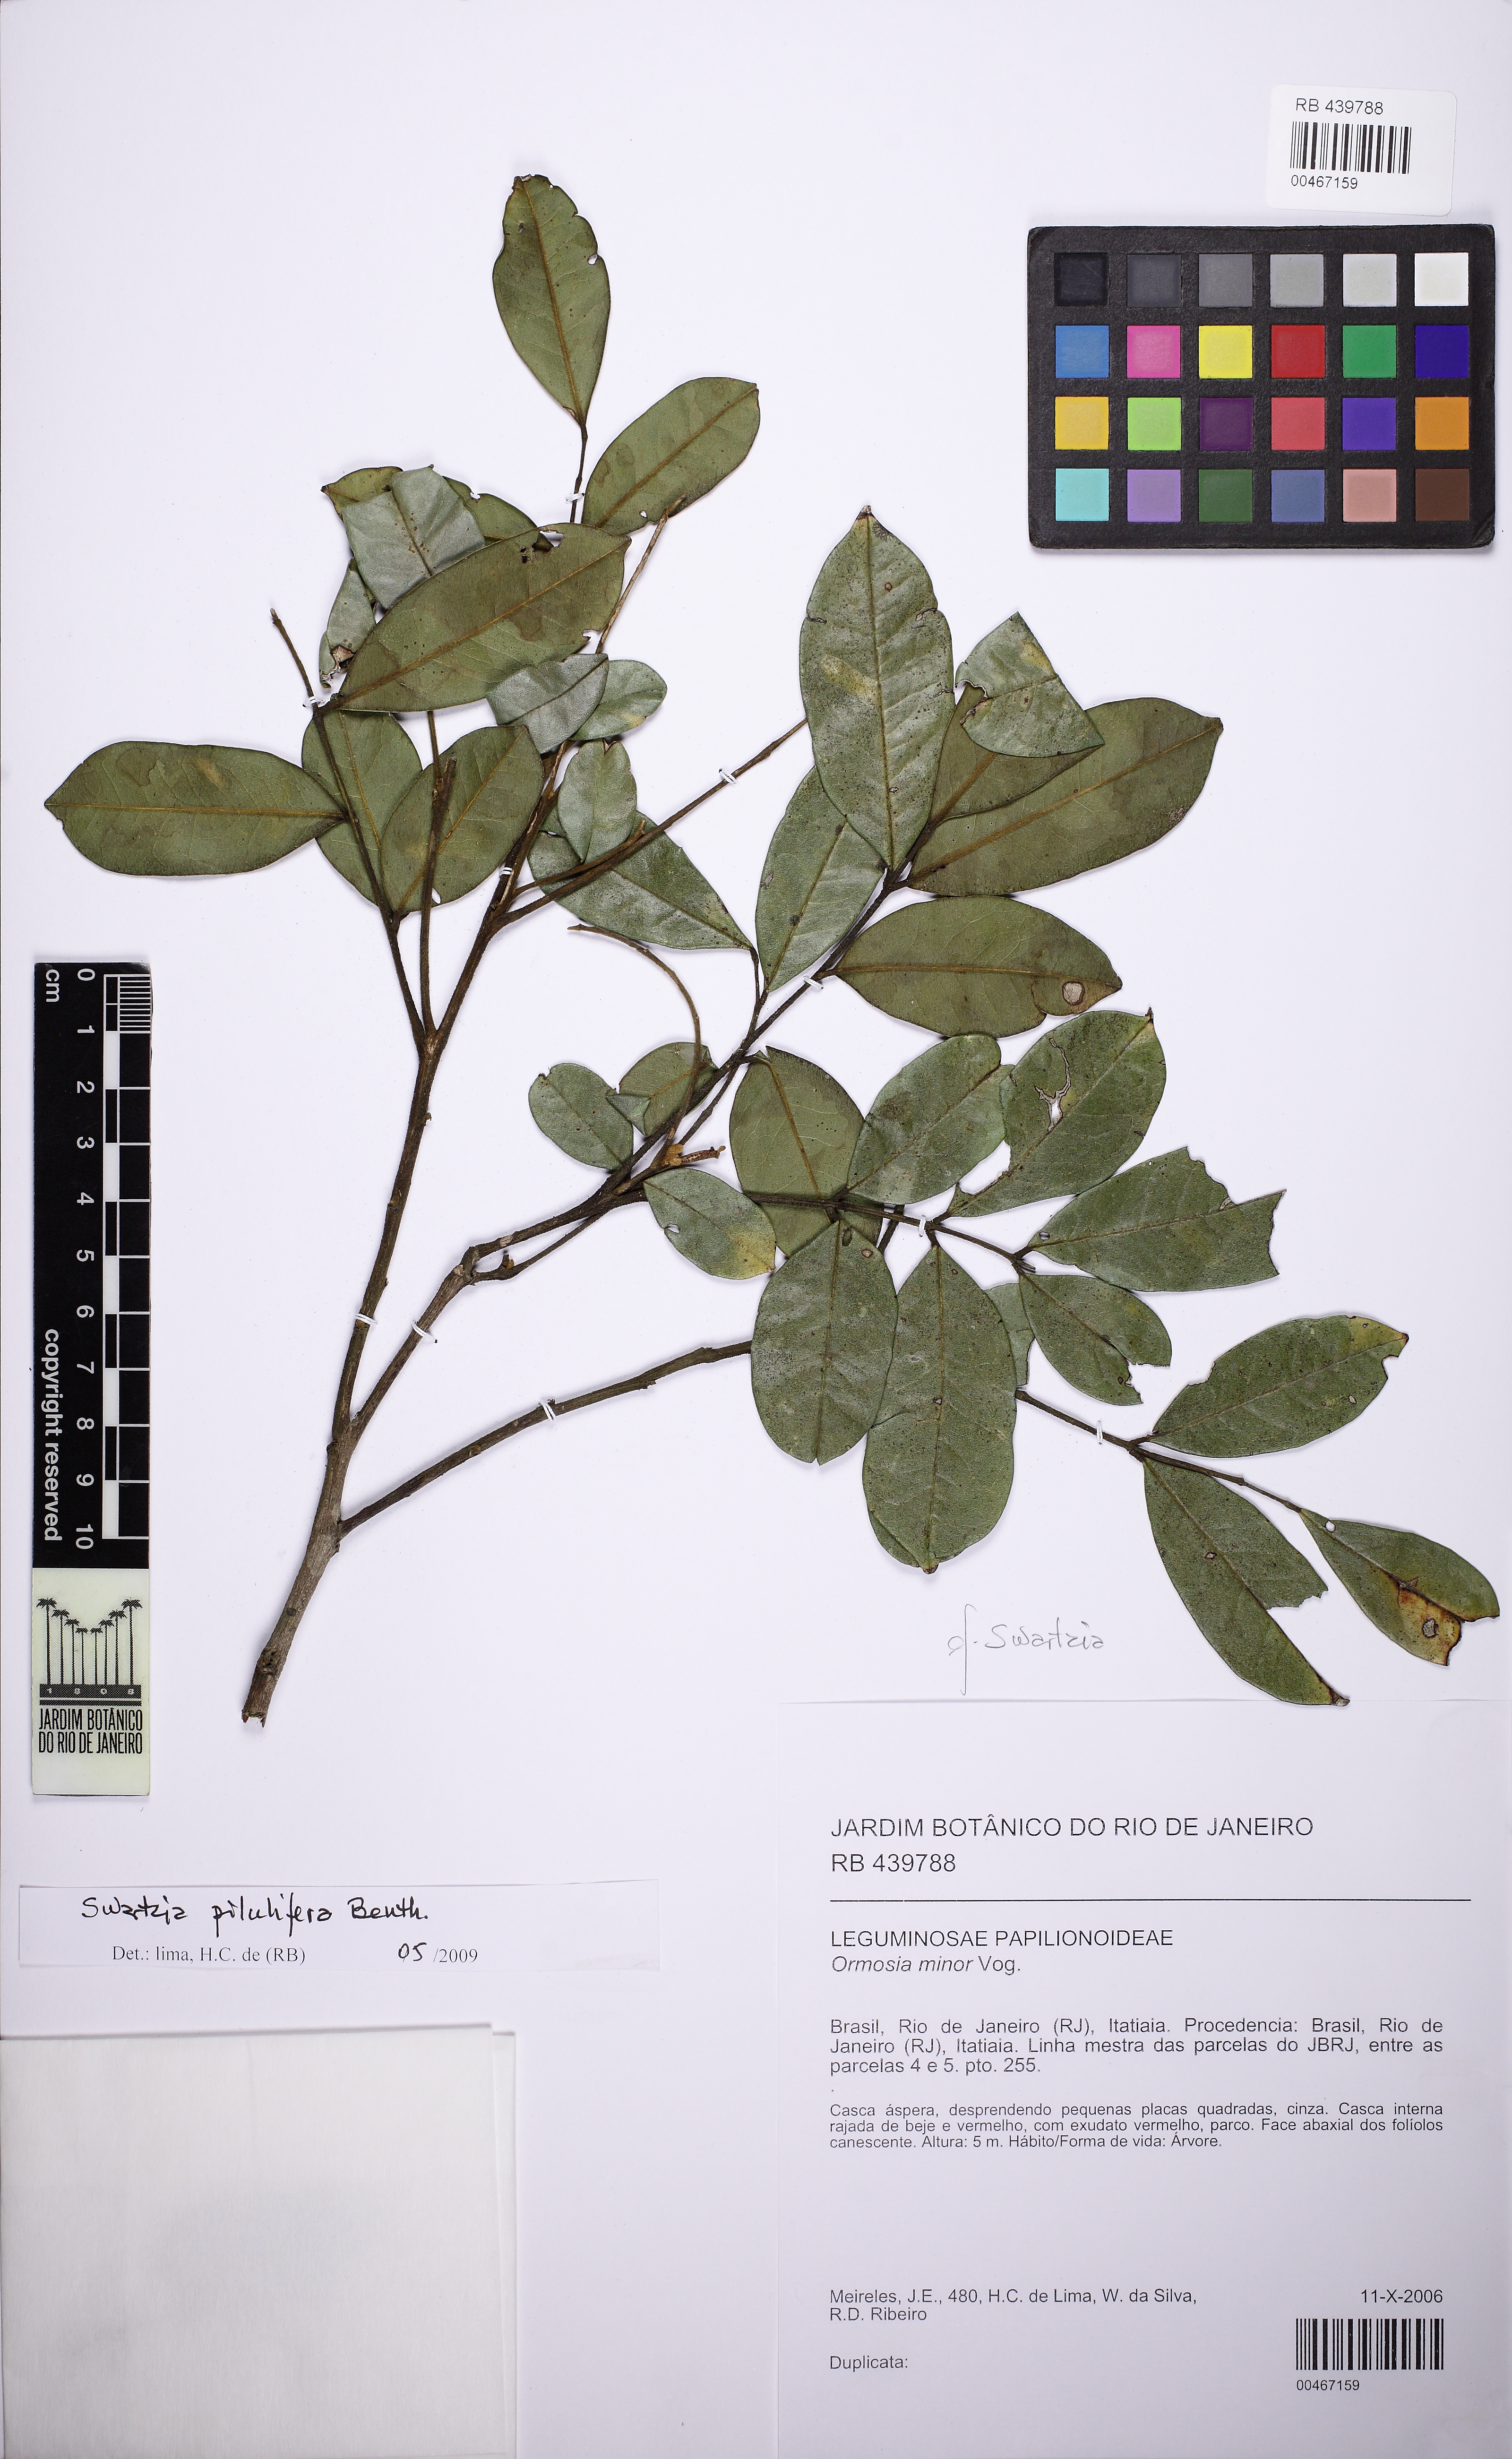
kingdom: Plantae
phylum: Tracheophyta
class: Magnoliopsida
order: Fabales
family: Fabaceae
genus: Swartzia
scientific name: Swartzia pilulifera
